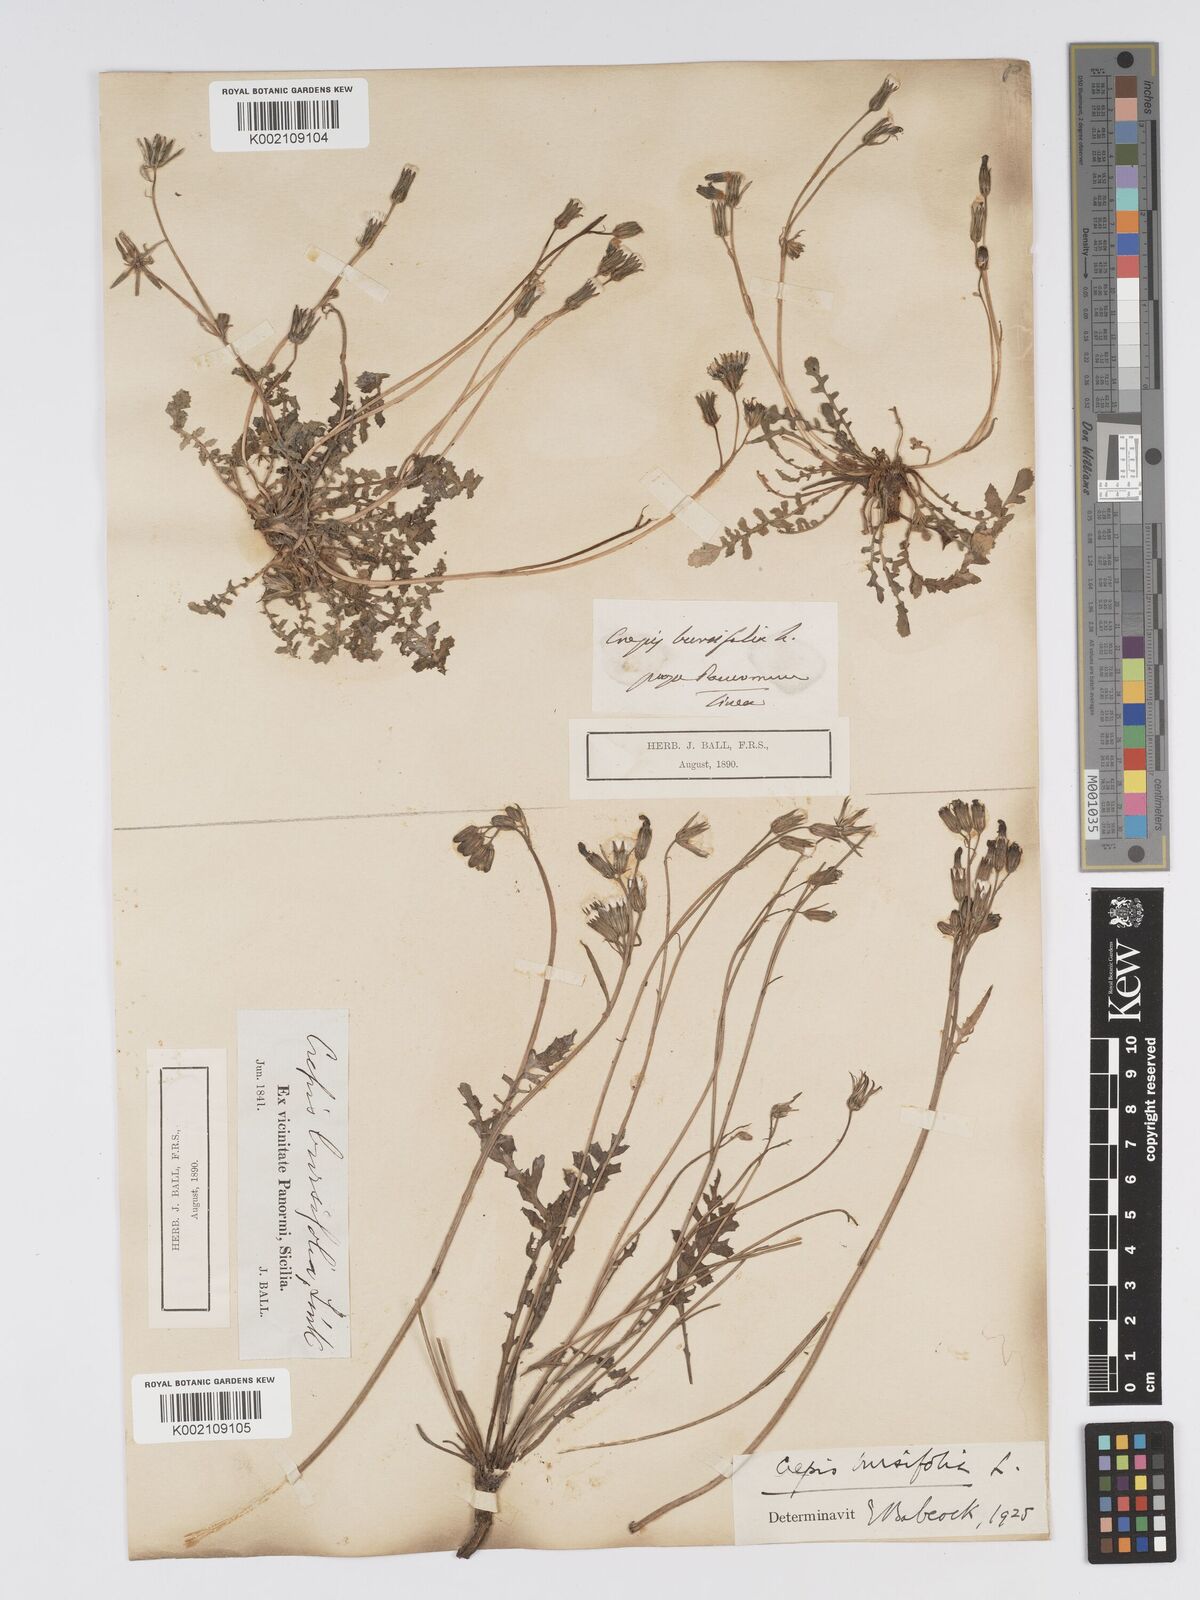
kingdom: Plantae
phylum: Tracheophyta
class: Magnoliopsida
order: Asterales
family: Asteraceae
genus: Crepis
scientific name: Crepis bursifolia
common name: Italian hawksbeard
